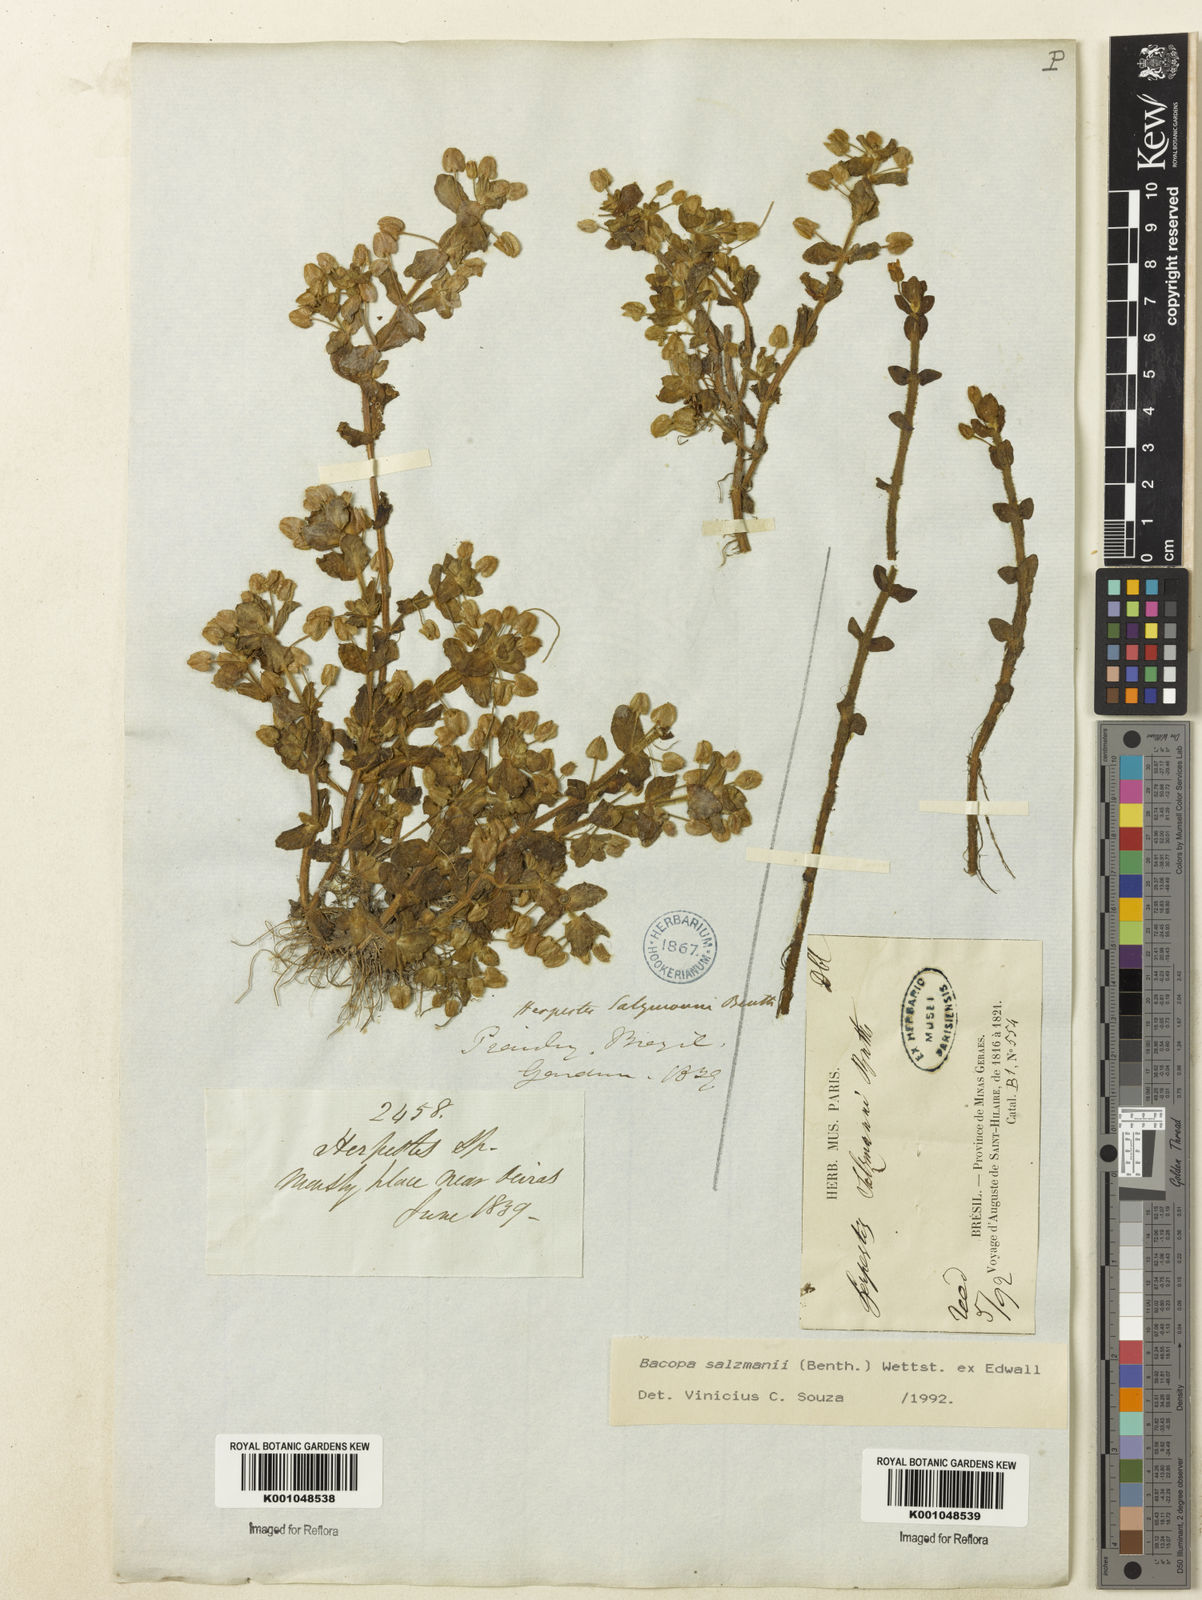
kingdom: Plantae
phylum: Tracheophyta
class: Magnoliopsida
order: Lamiales
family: Plantaginaceae
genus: Bacopa
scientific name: Bacopa salzmannii
